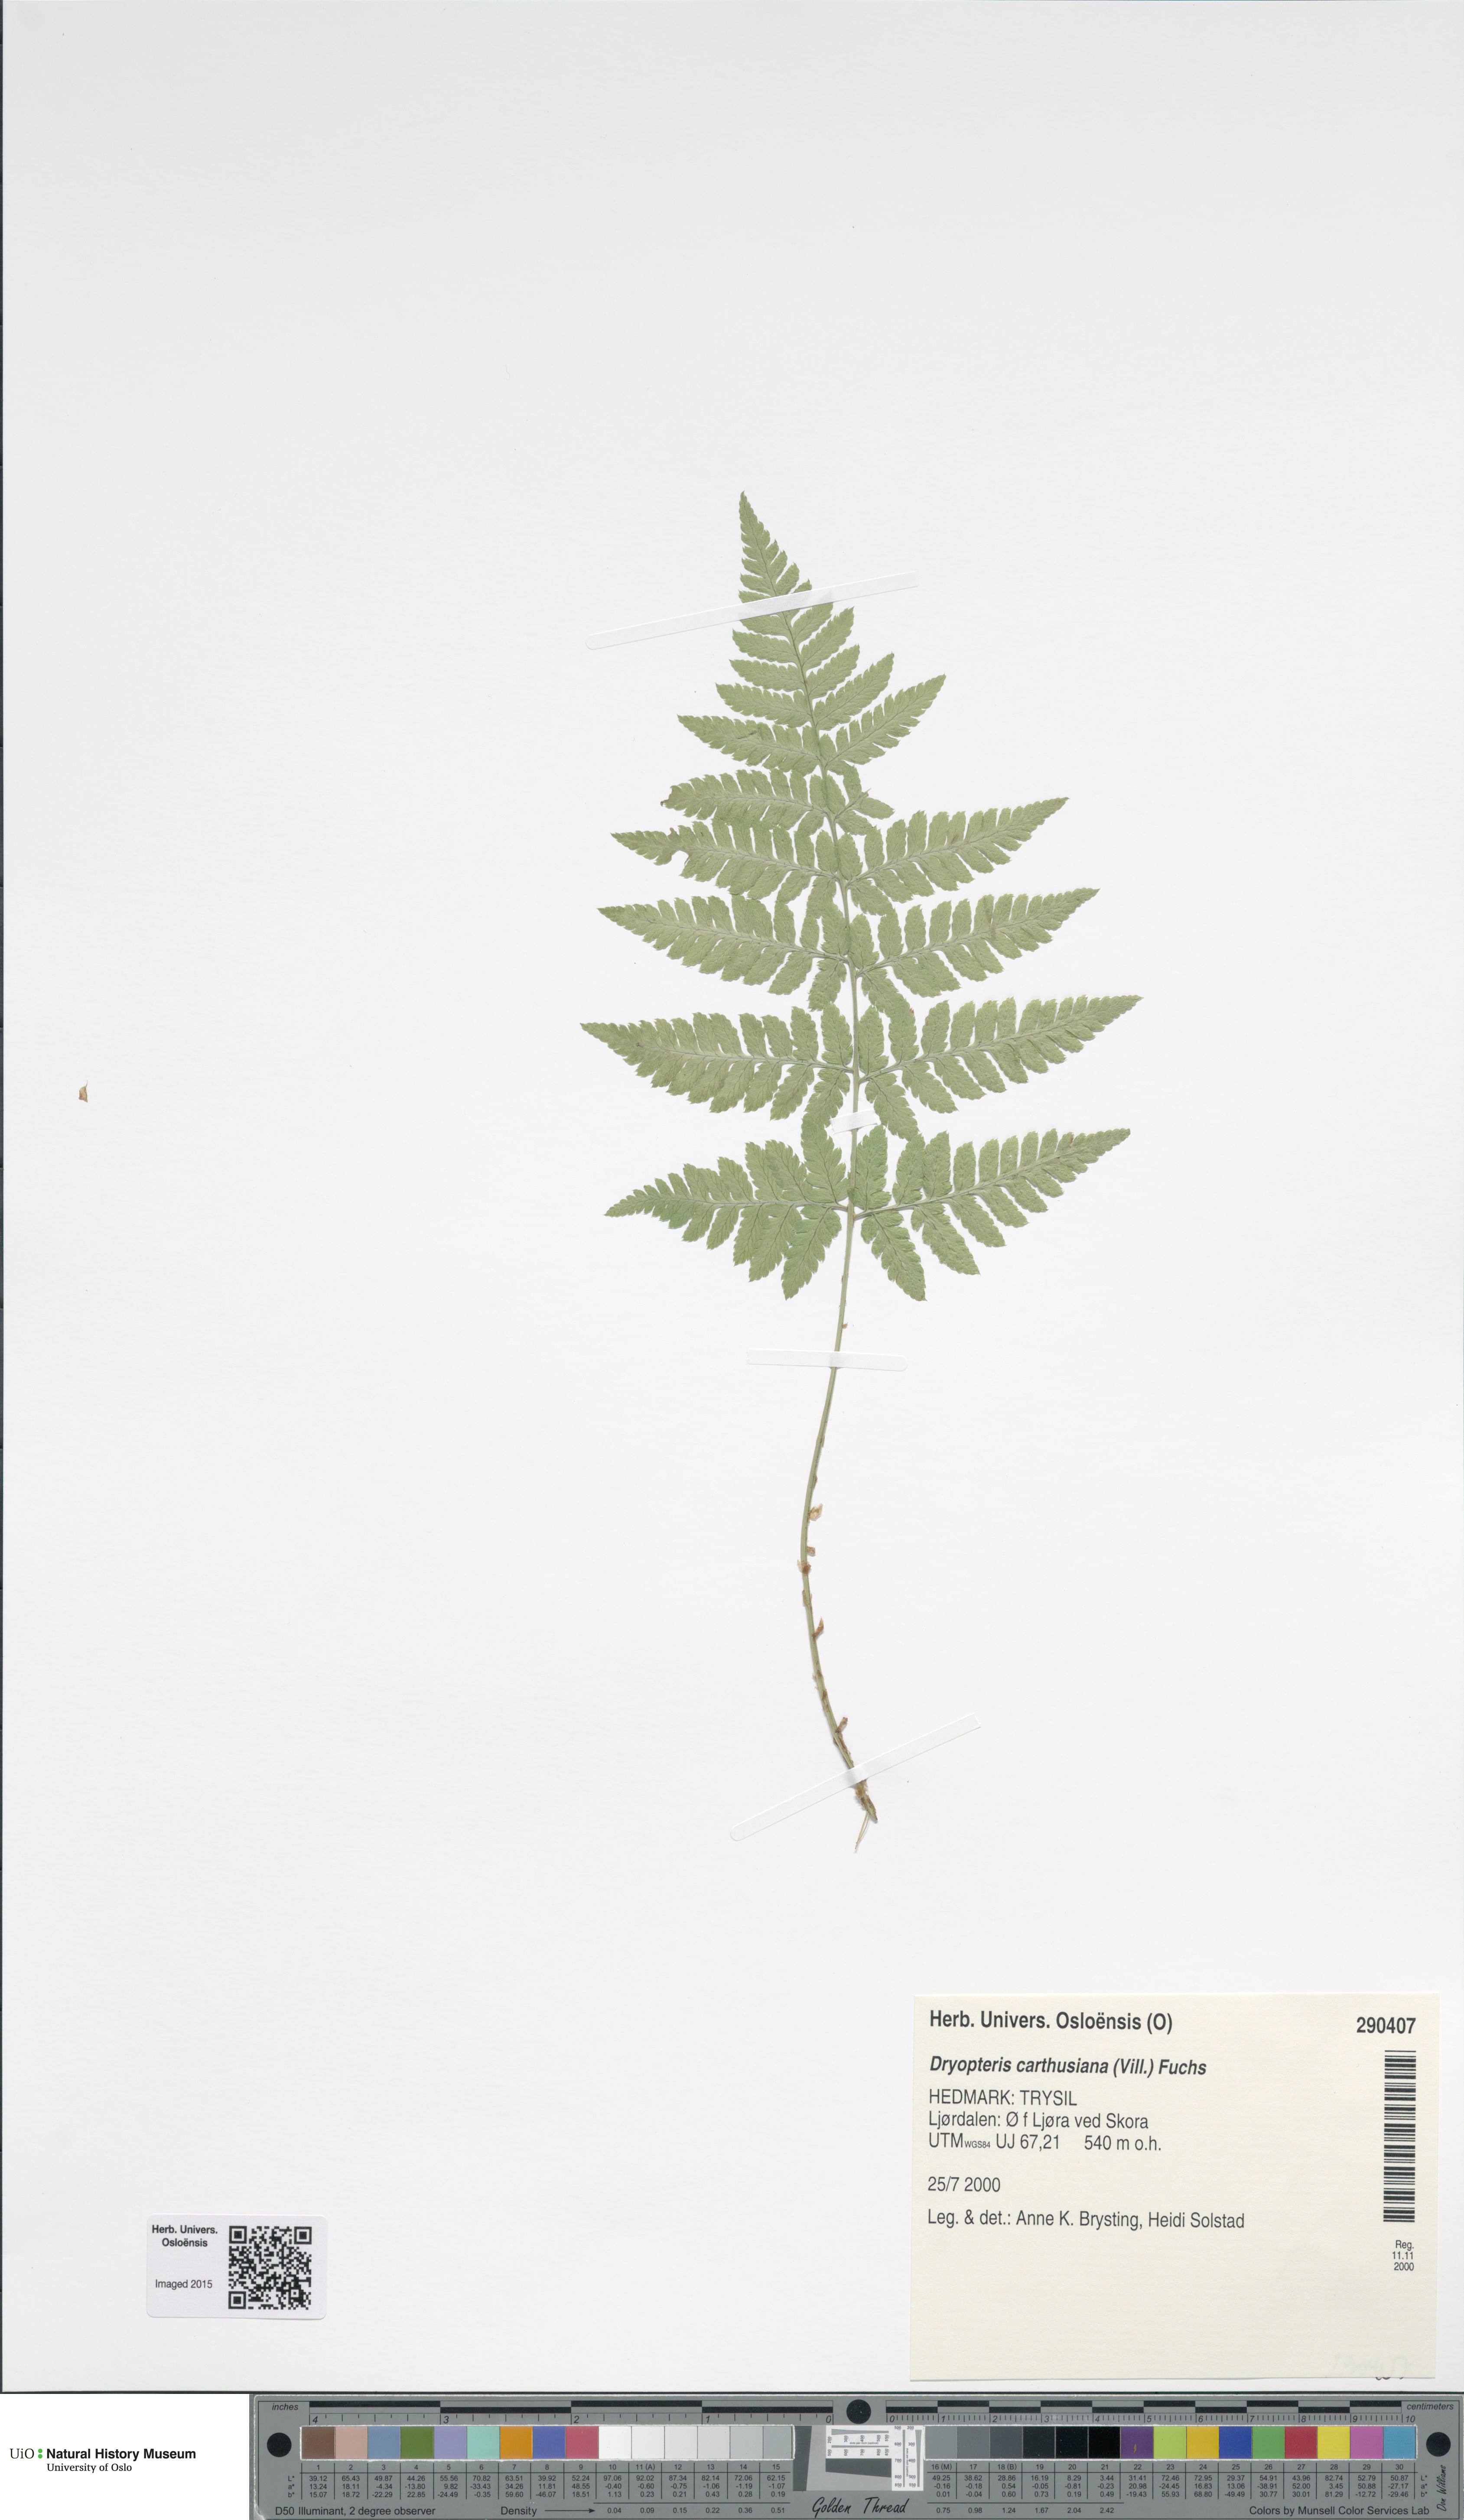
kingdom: Plantae
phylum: Tracheophyta
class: Polypodiopsida
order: Polypodiales
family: Dryopteridaceae
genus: Dryopteris
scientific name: Dryopteris carthusiana
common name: Narrow buckler-fern
